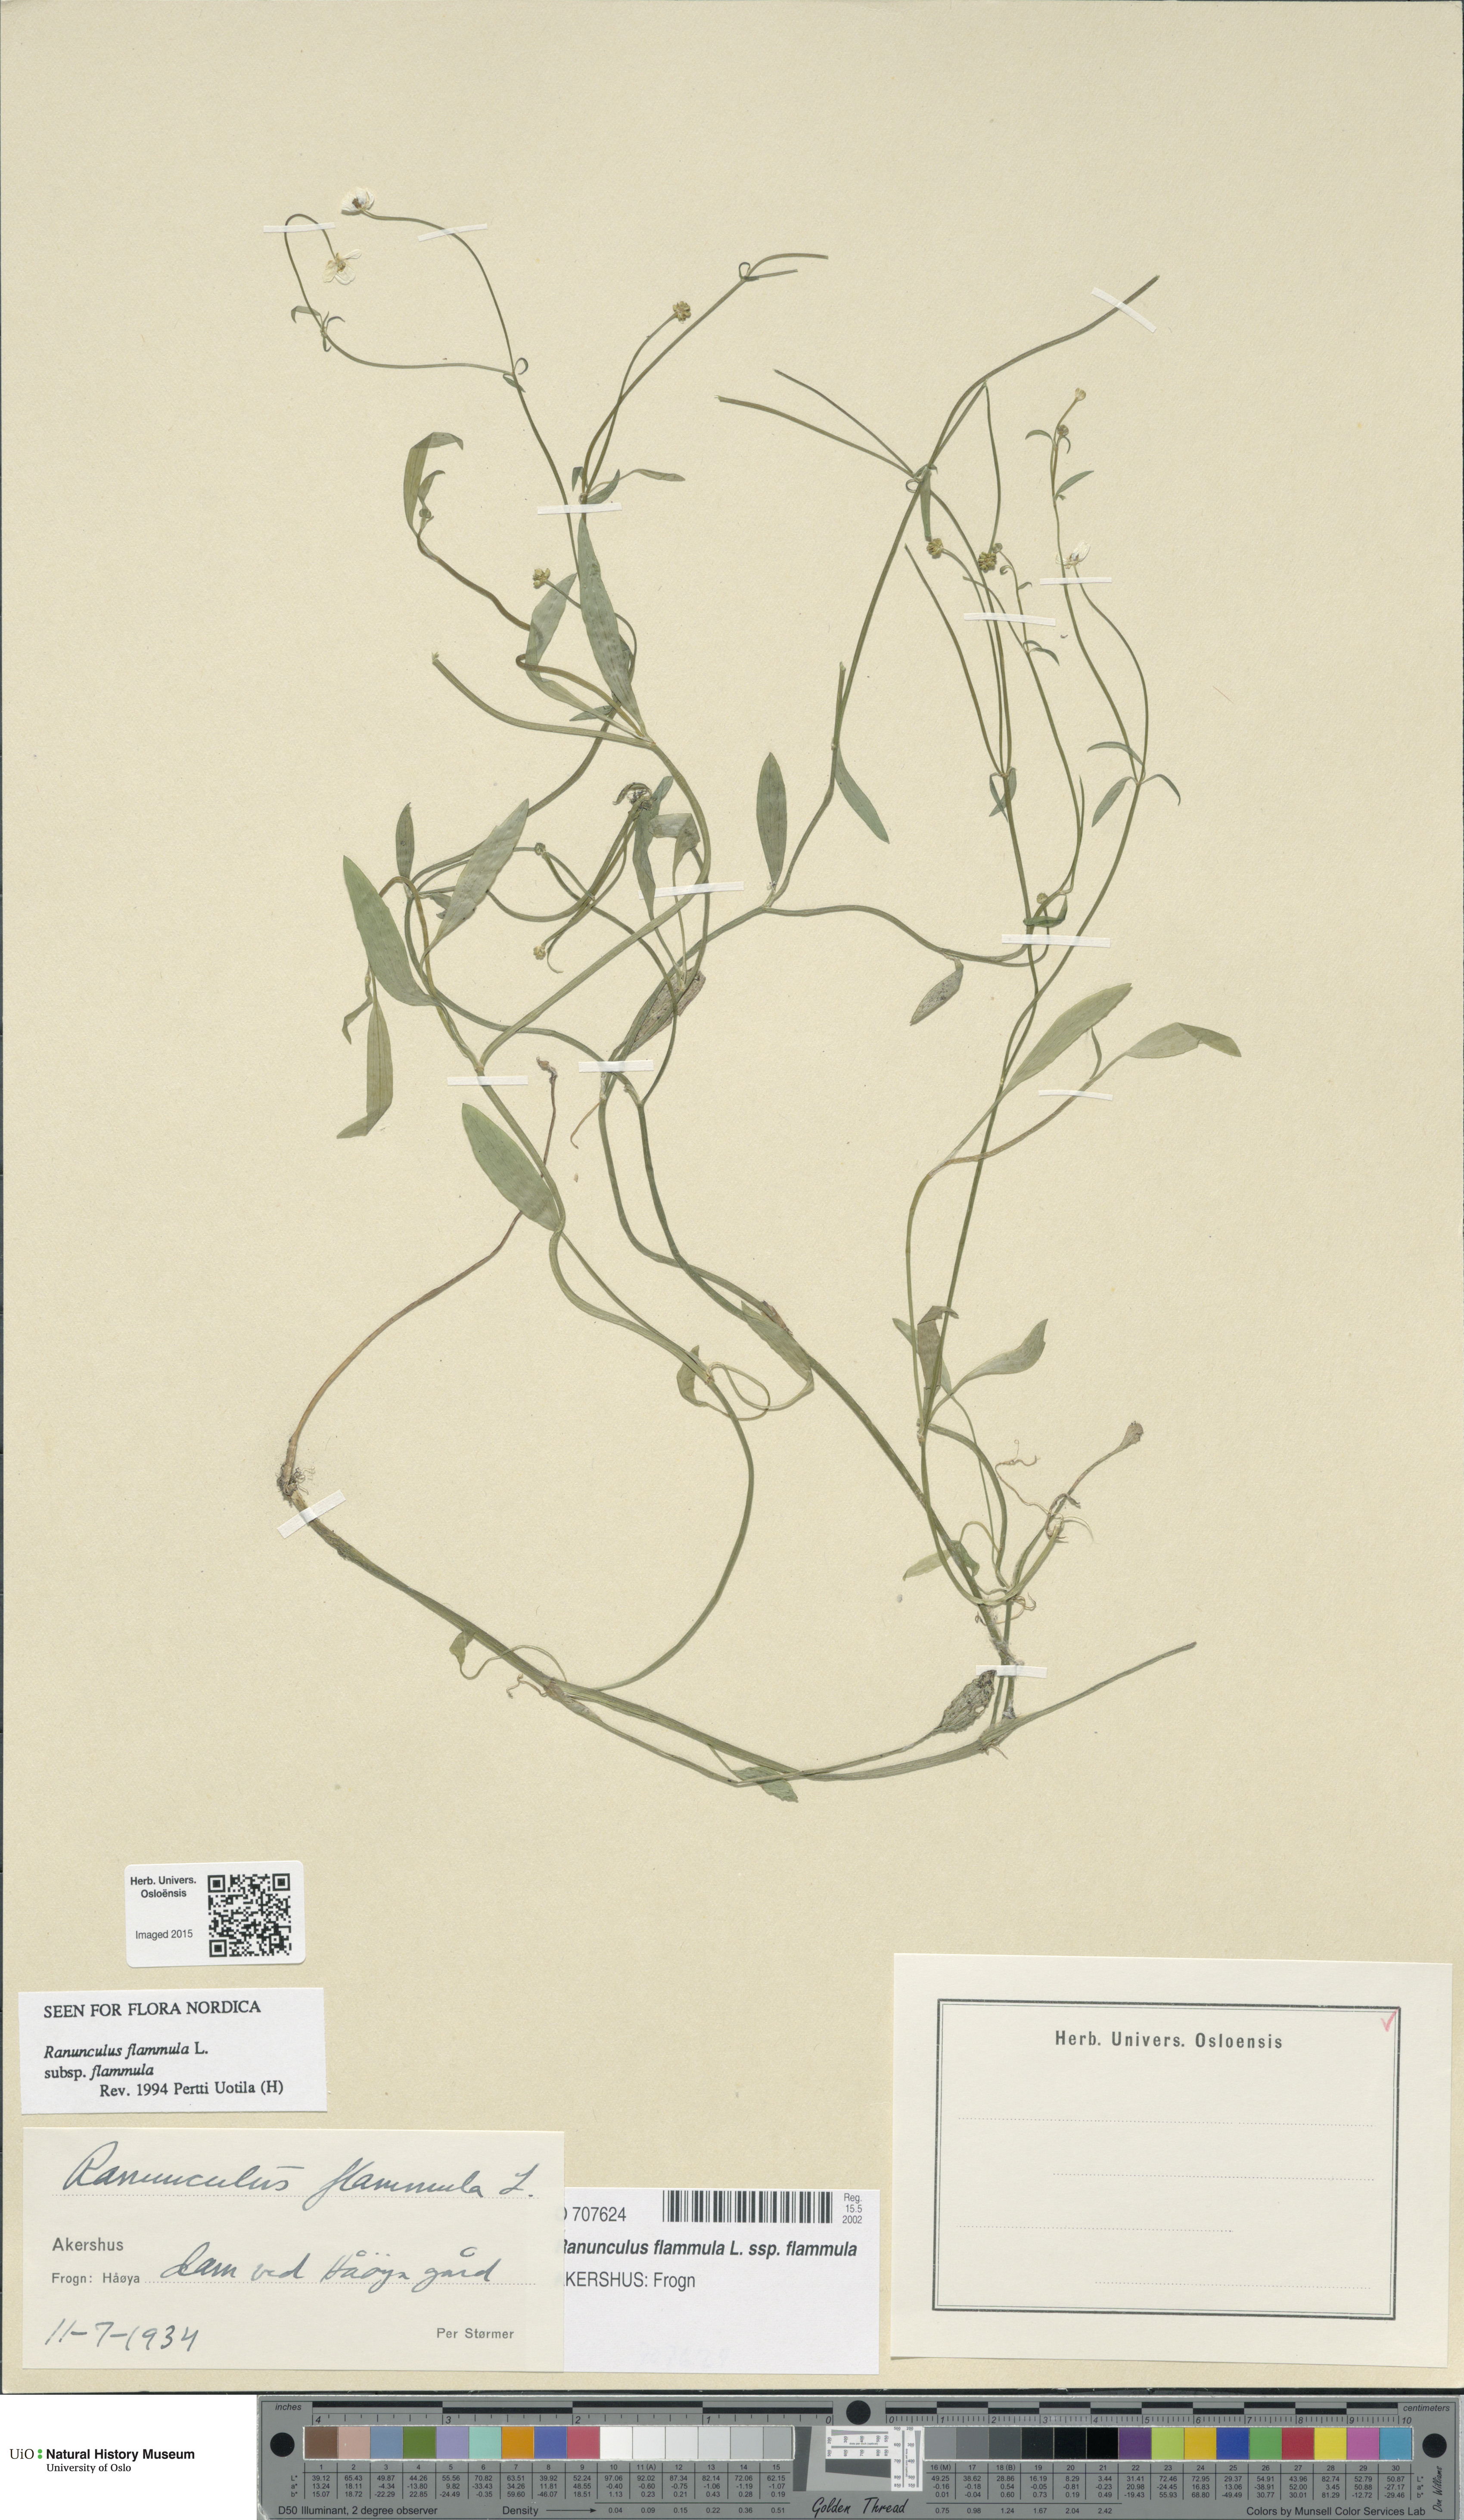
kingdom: Plantae
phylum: Tracheophyta
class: Magnoliopsida
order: Ranunculales
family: Ranunculaceae
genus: Ranunculus
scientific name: Ranunculus flammula
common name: Lesser spearwort
